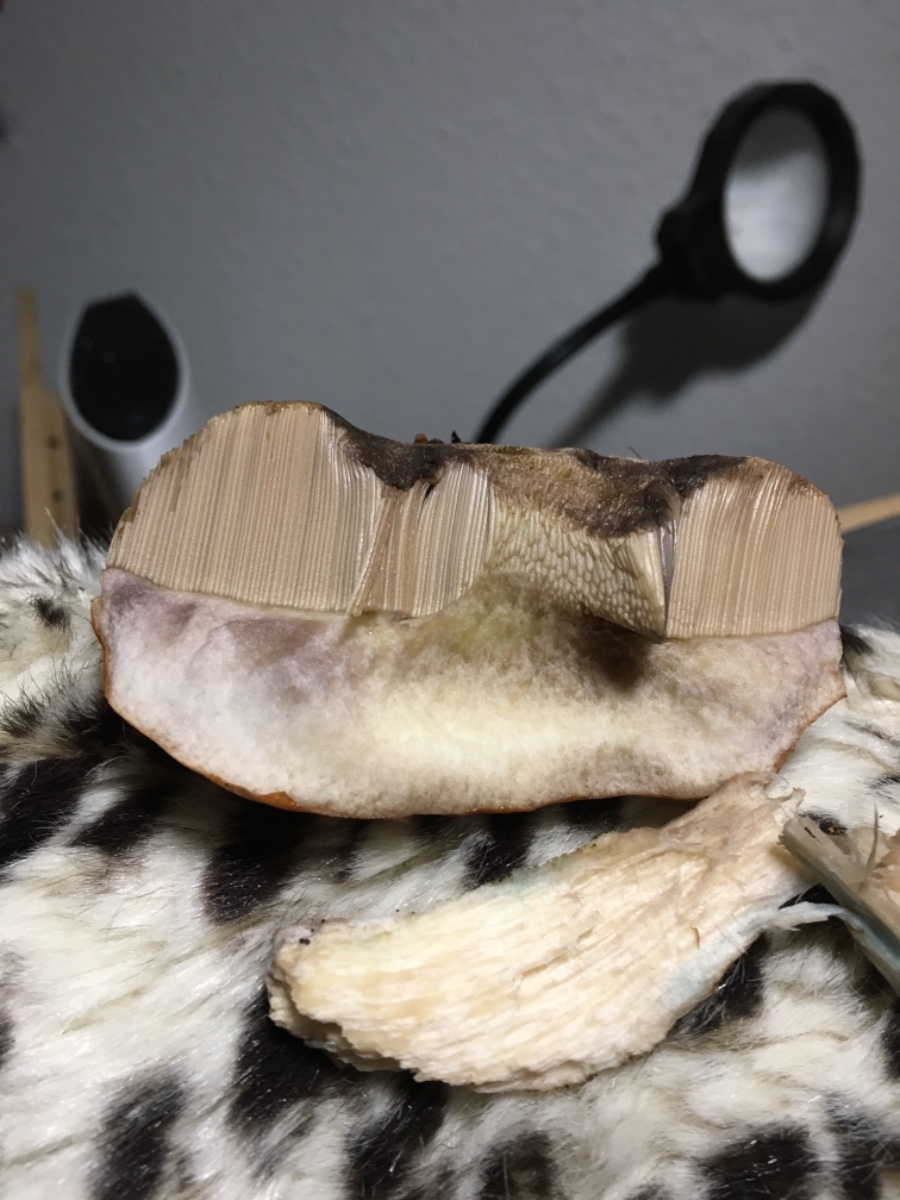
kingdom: Fungi
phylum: Basidiomycota
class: Agaricomycetes
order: Boletales
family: Boletaceae
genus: Leccinum
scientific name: Leccinum
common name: skælrørhat
